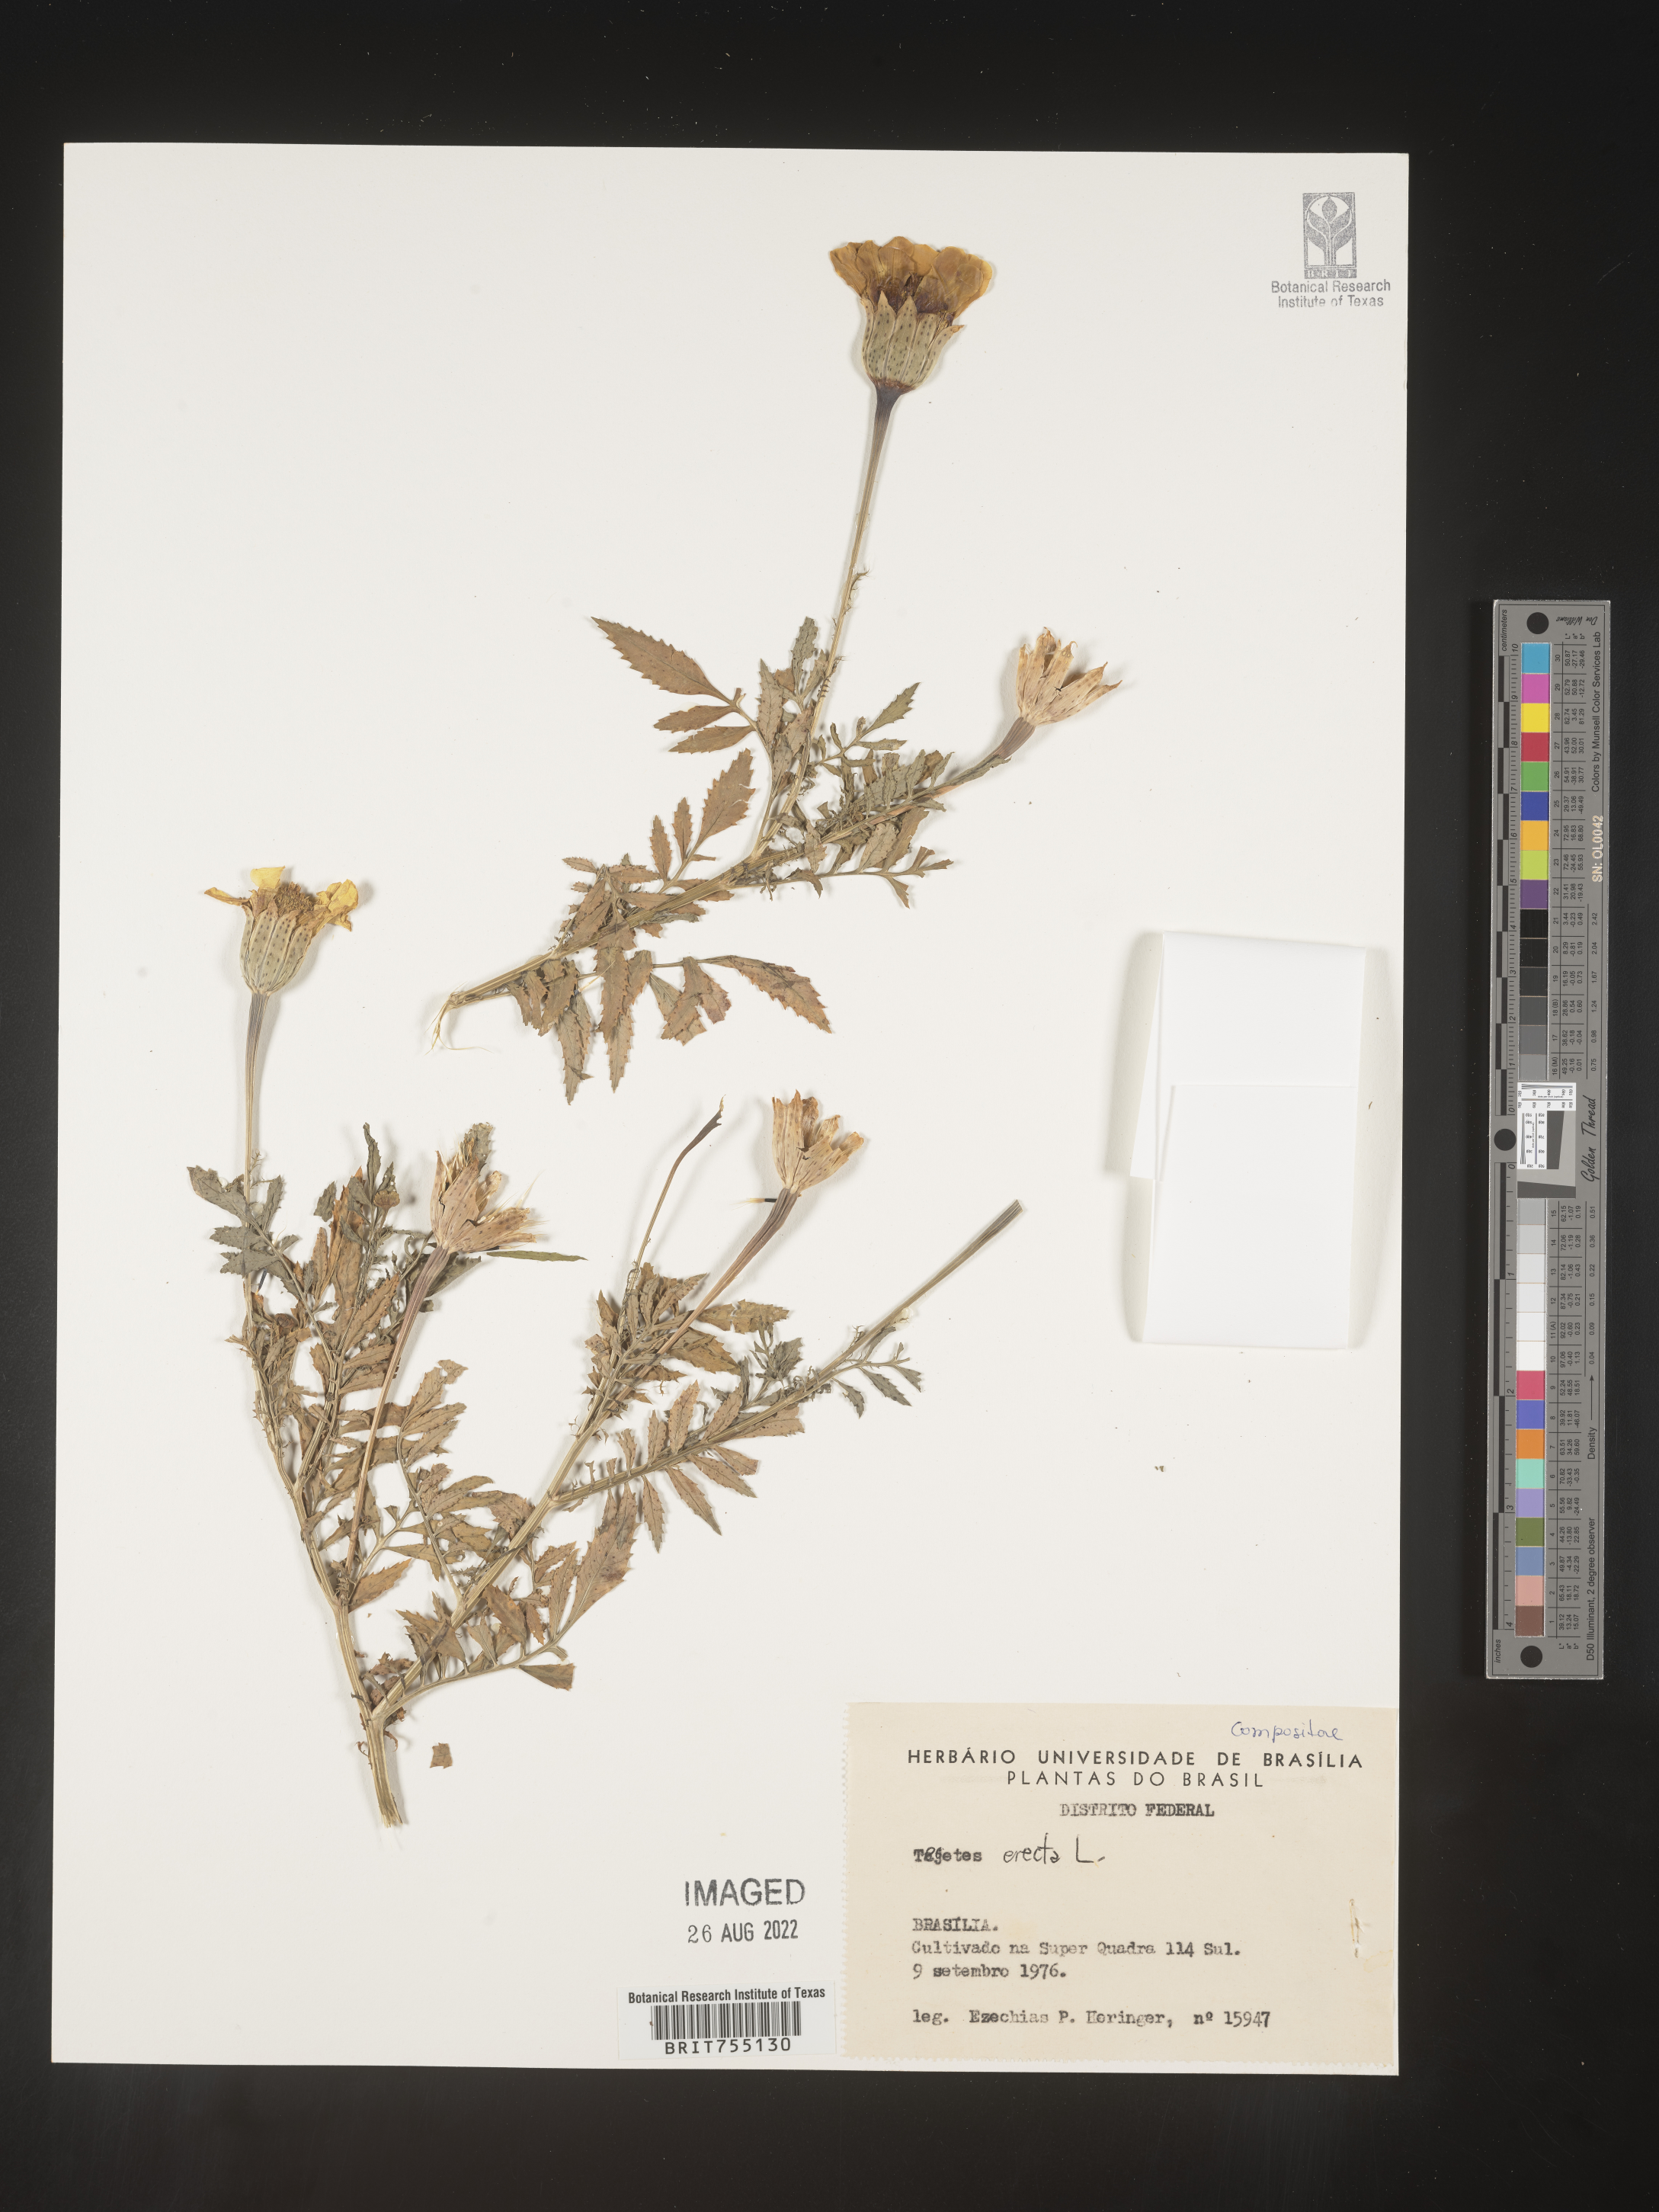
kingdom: Plantae
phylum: Tracheophyta
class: Magnoliopsida
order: Asterales
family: Asteraceae
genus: Tagetes
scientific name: Tagetes
